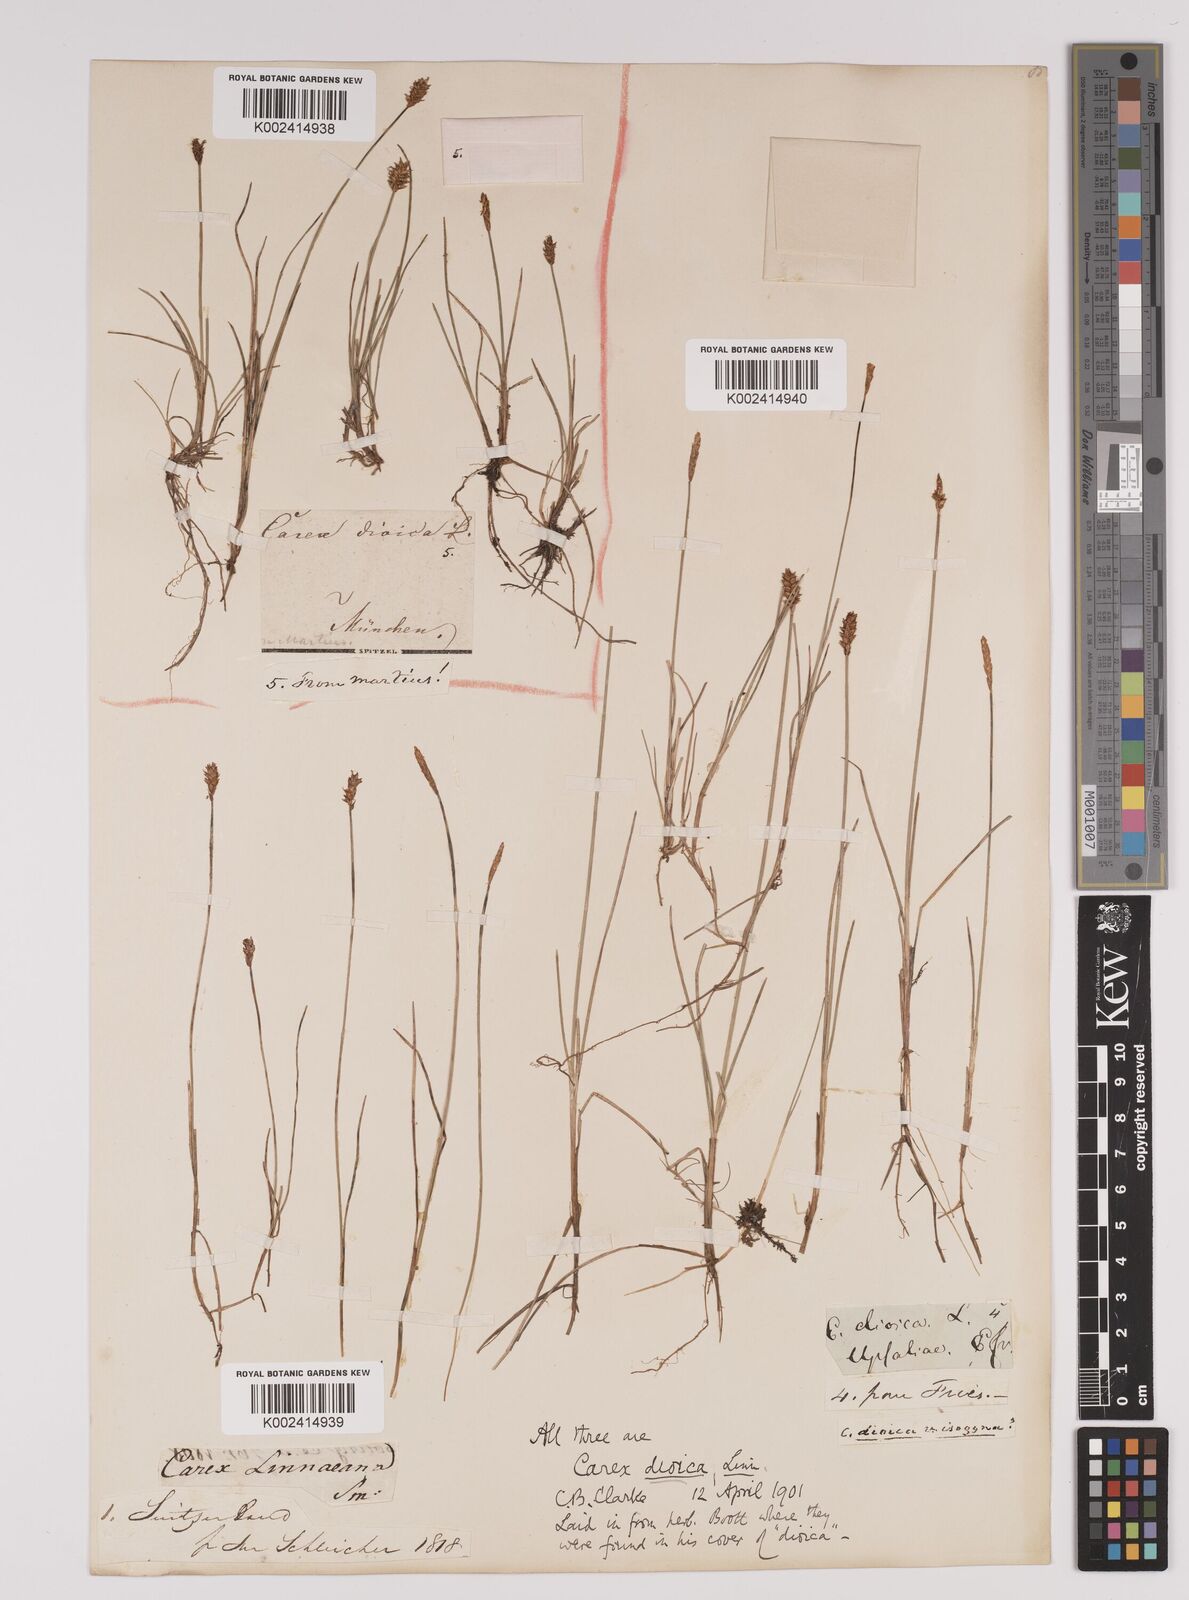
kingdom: Plantae
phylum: Tracheophyta
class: Liliopsida
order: Poales
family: Cyperaceae
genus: Carex
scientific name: Carex dioica
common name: Dioecious sedge
